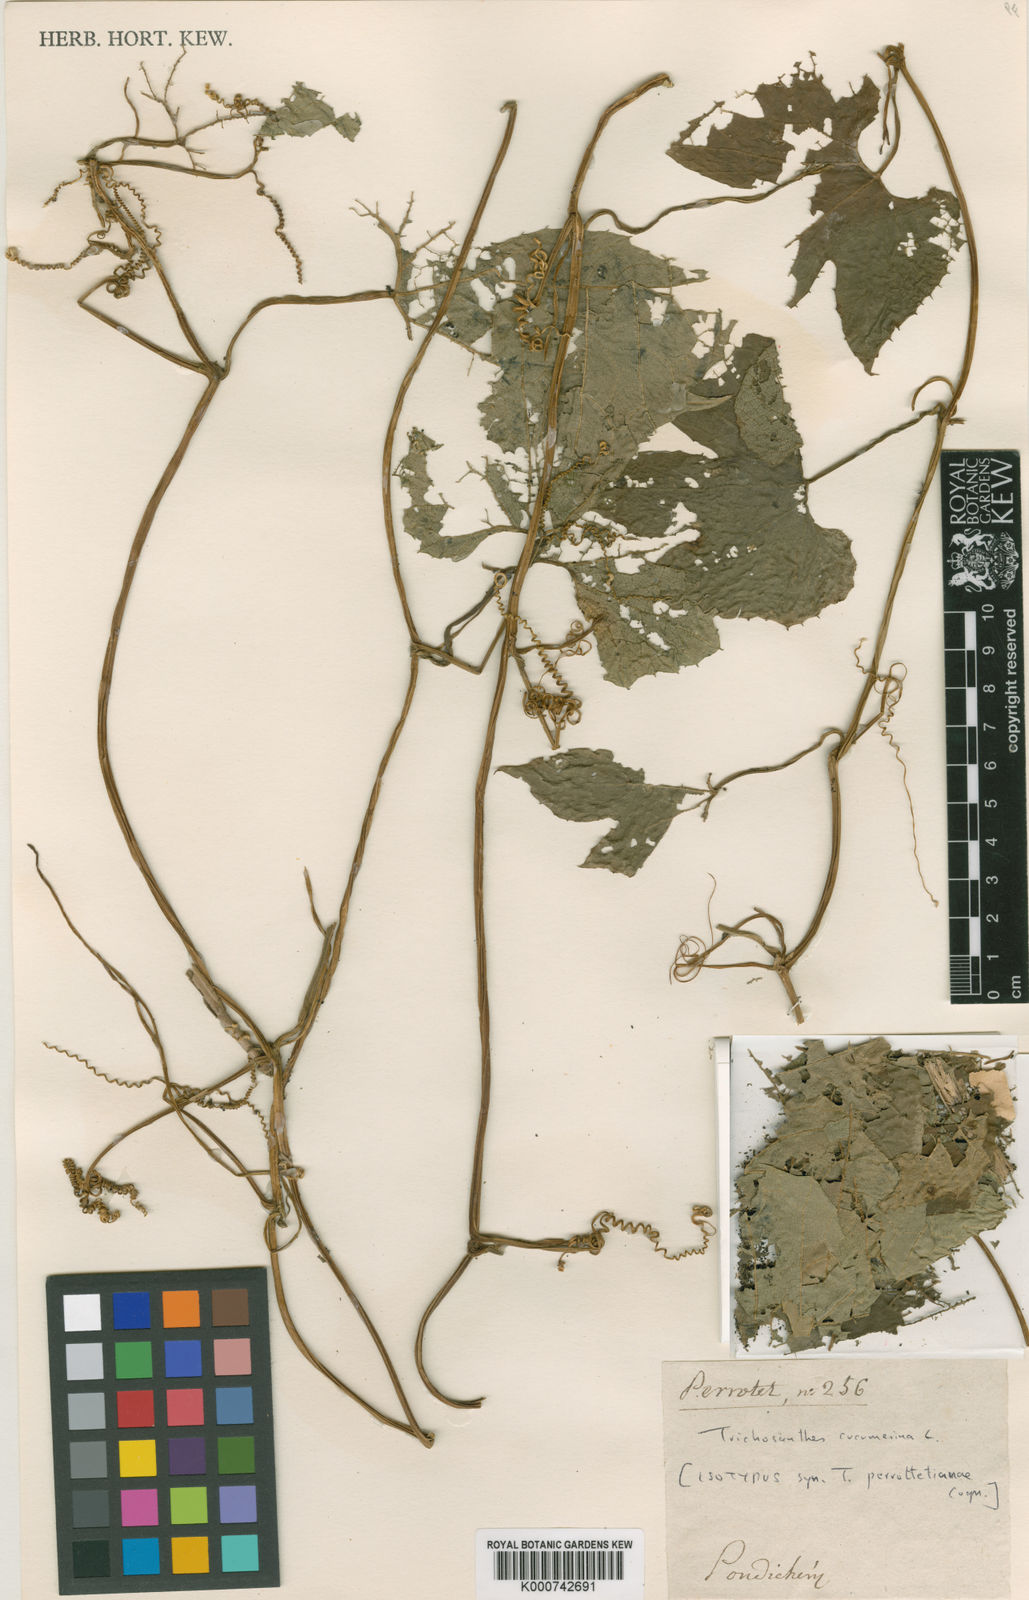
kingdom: Plantae
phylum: Tracheophyta
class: Magnoliopsida
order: Cucurbitales
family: Cucurbitaceae
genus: Trichosanthes
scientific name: Trichosanthes cucumerina
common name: Snakegourd
